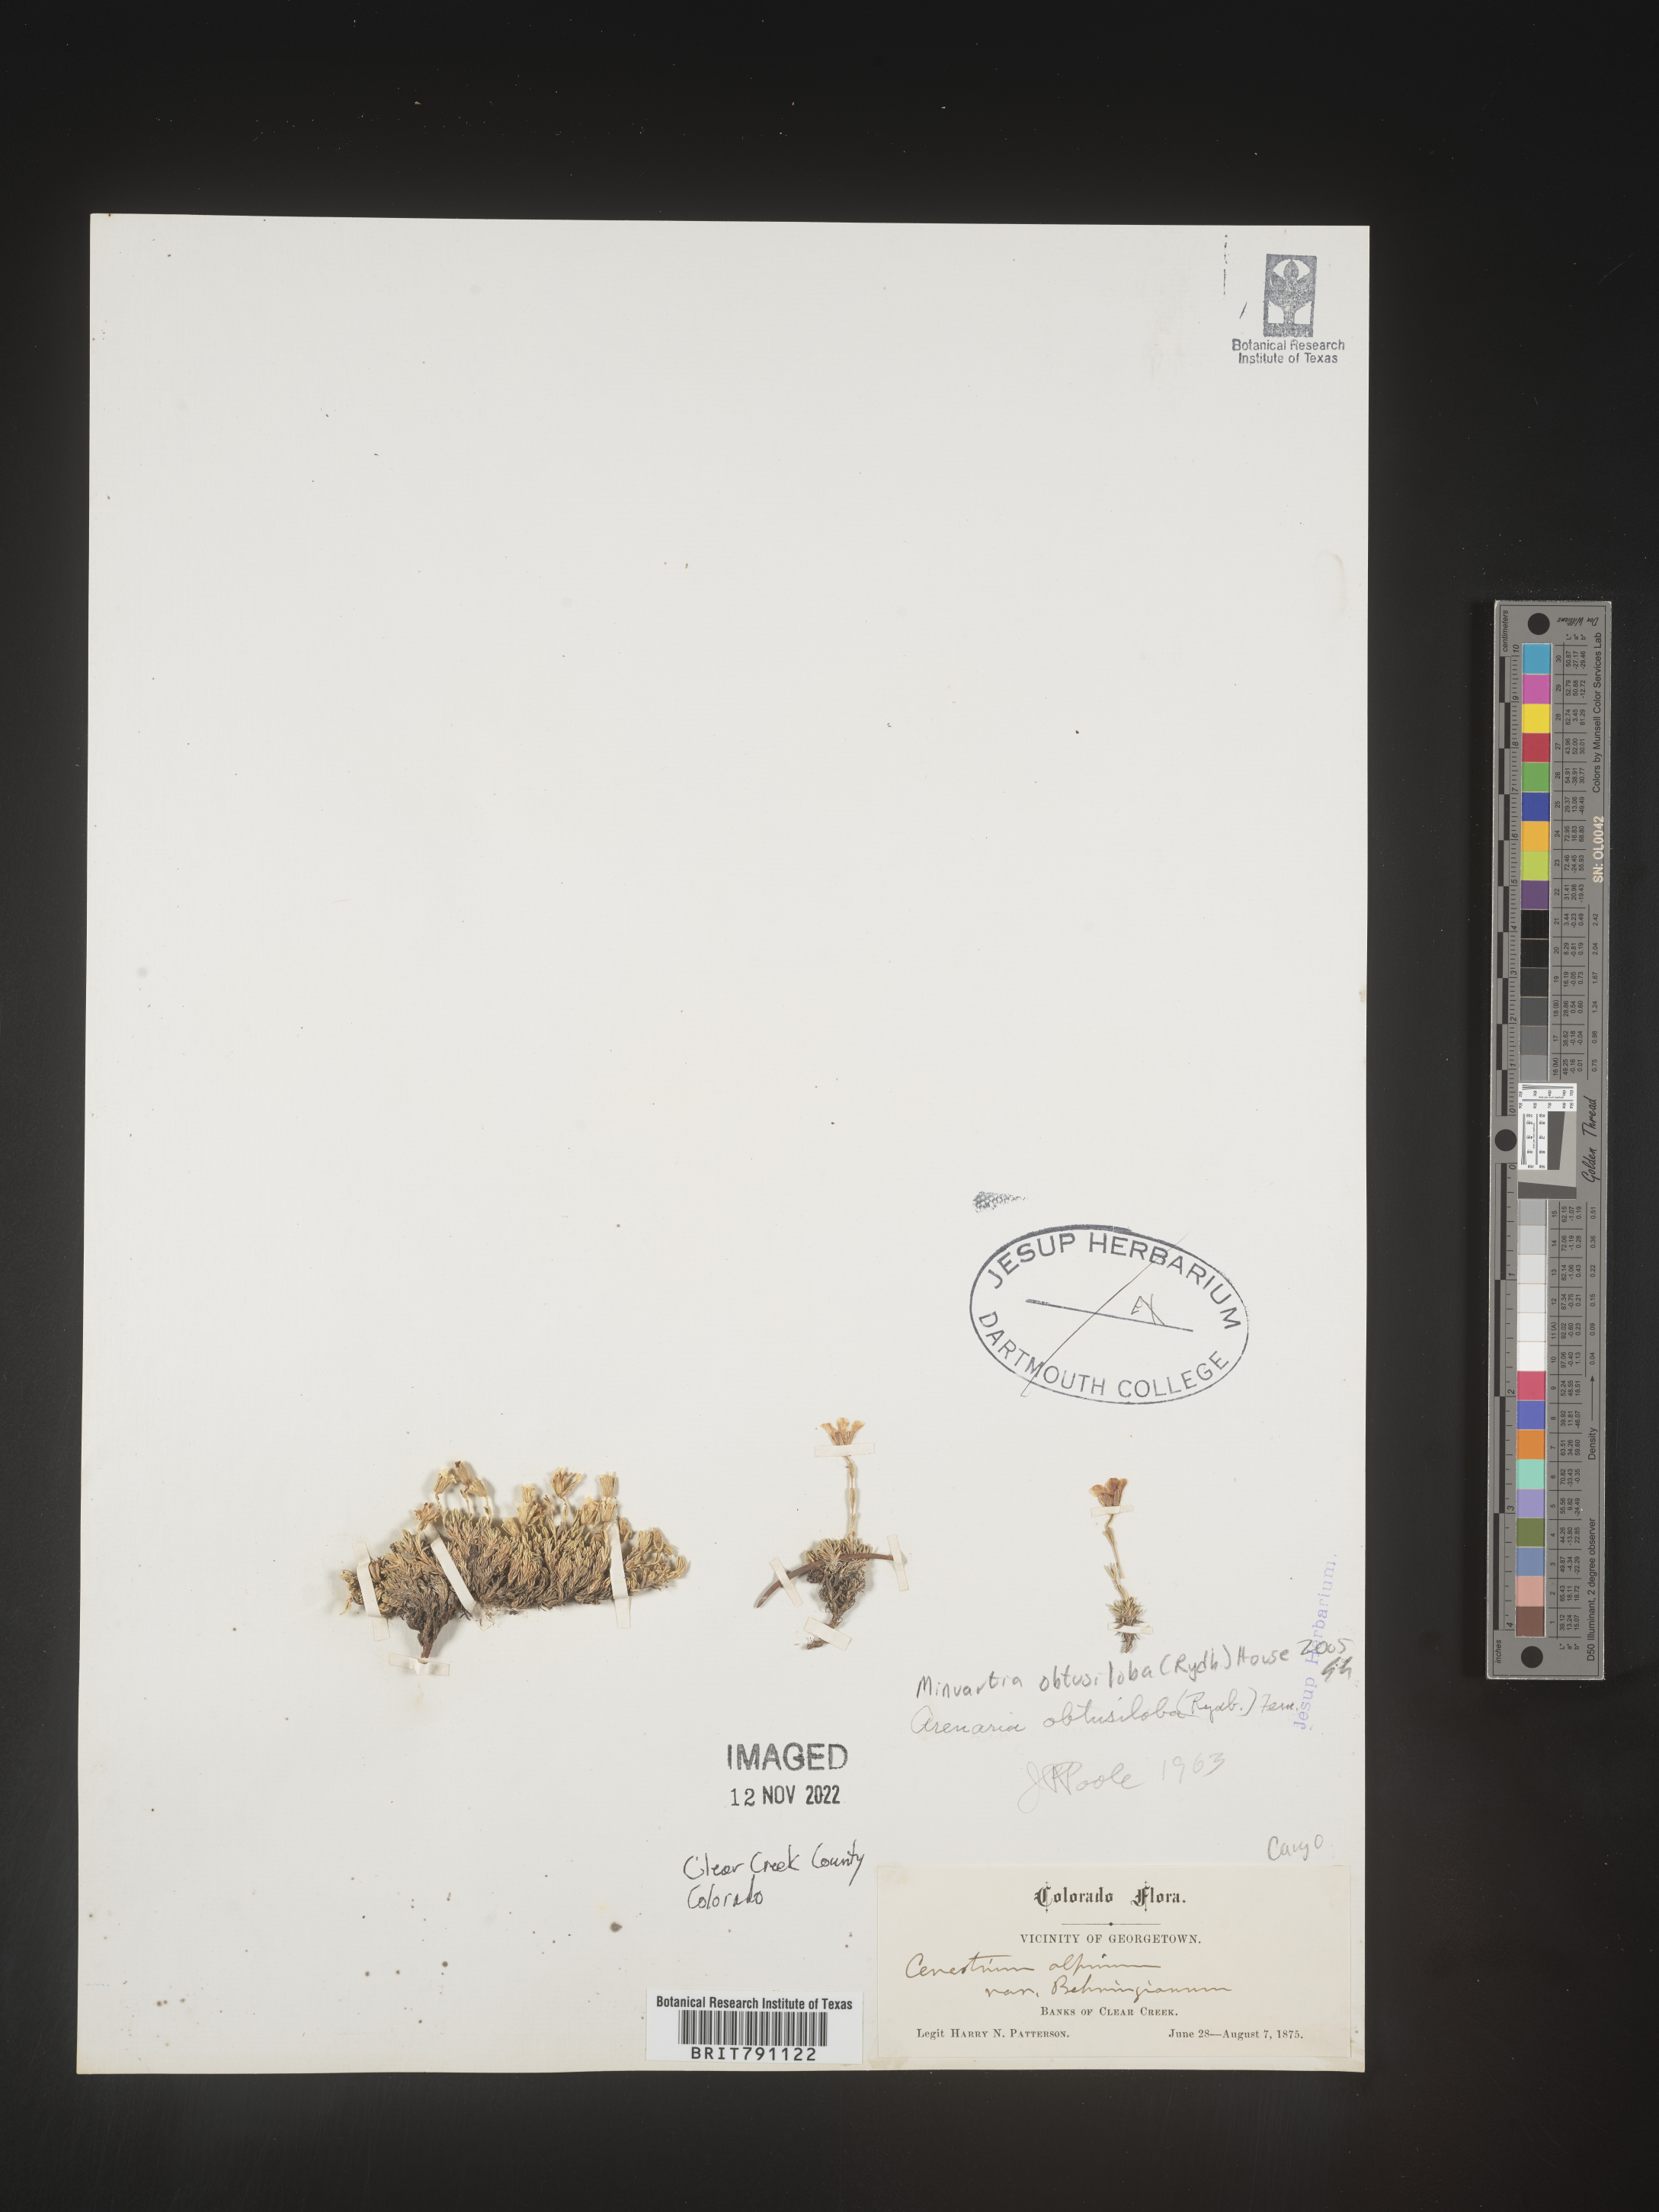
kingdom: Plantae
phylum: Tracheophyta
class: Magnoliopsida
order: Caryophyllales
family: Caryophyllaceae
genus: Cherleria
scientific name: Cherleria obtusiloba
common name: Alpine stitchwort
